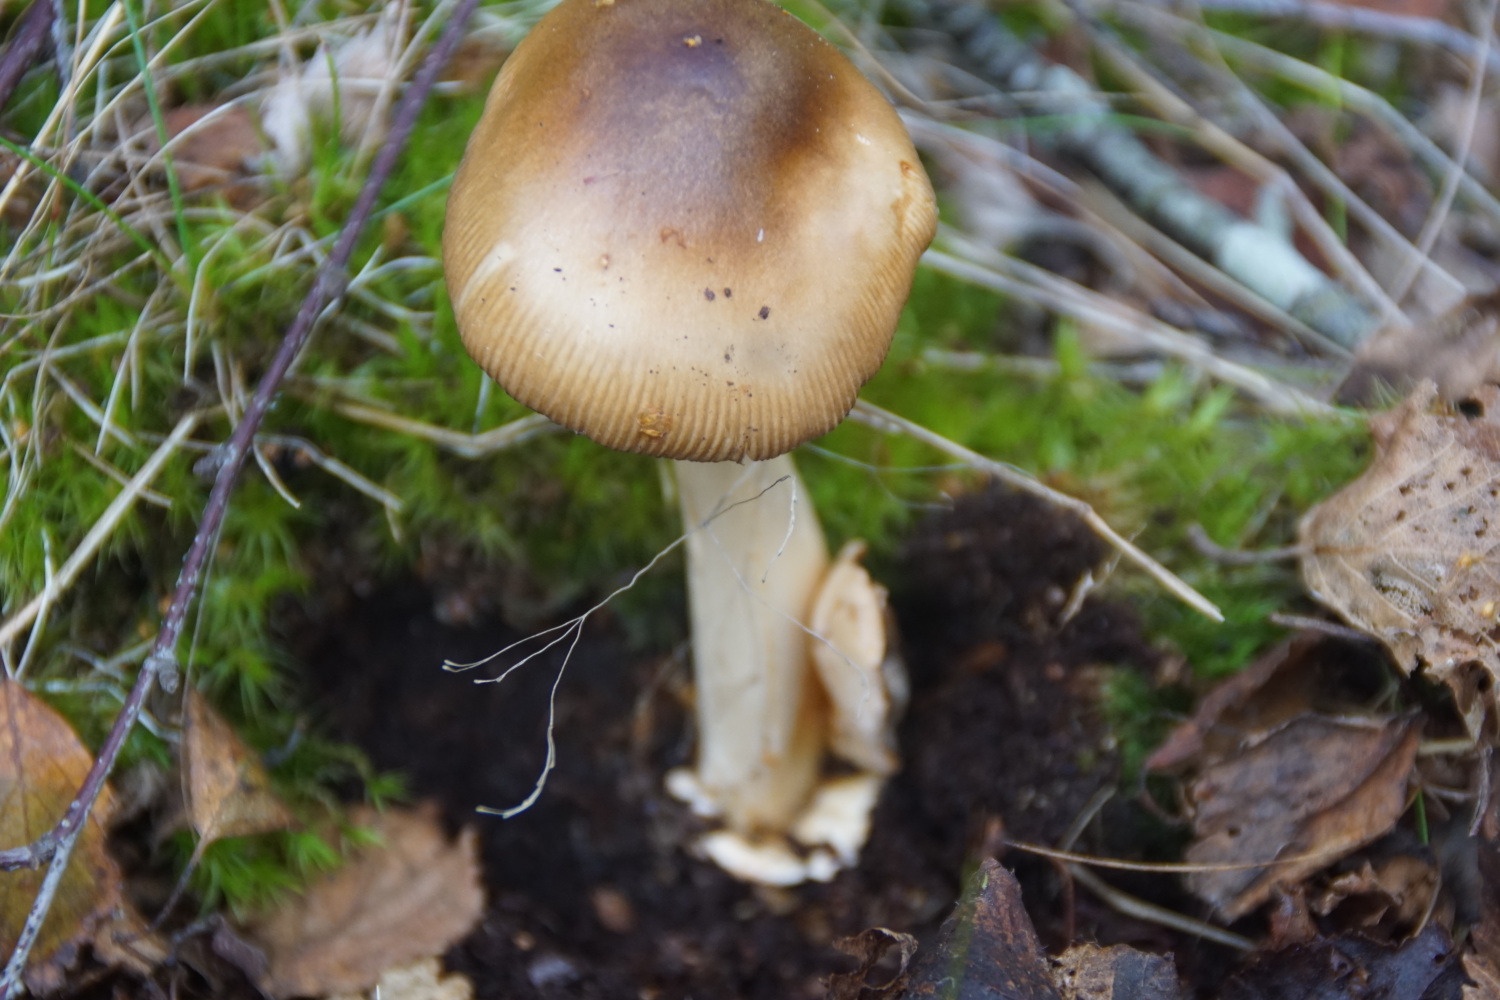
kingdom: Fungi
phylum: Basidiomycota
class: Agaricomycetes
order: Agaricales
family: Amanitaceae
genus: Amanita
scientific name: Amanita fulva
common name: brun kam-fluesvamp
